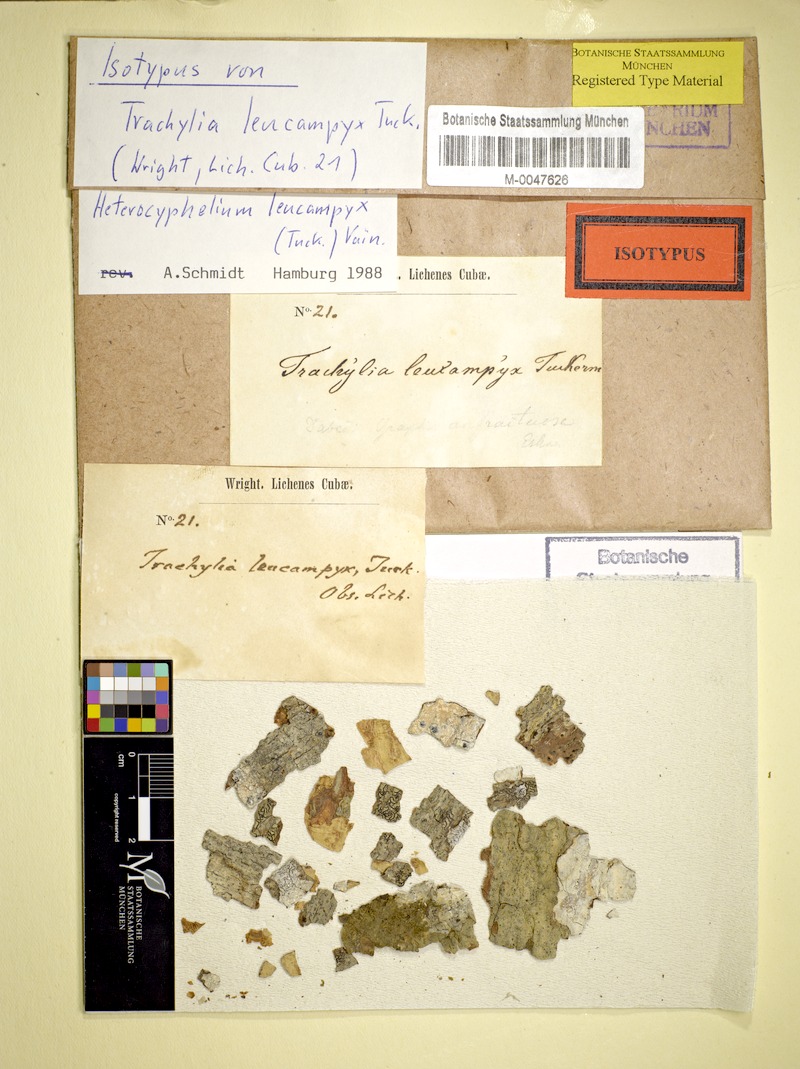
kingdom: Fungi
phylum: Ascomycota
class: Arthoniomycetes
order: Arthoniales
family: Lecanographaceae
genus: Heterocyphelium
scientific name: Heterocyphelium leucampyx
